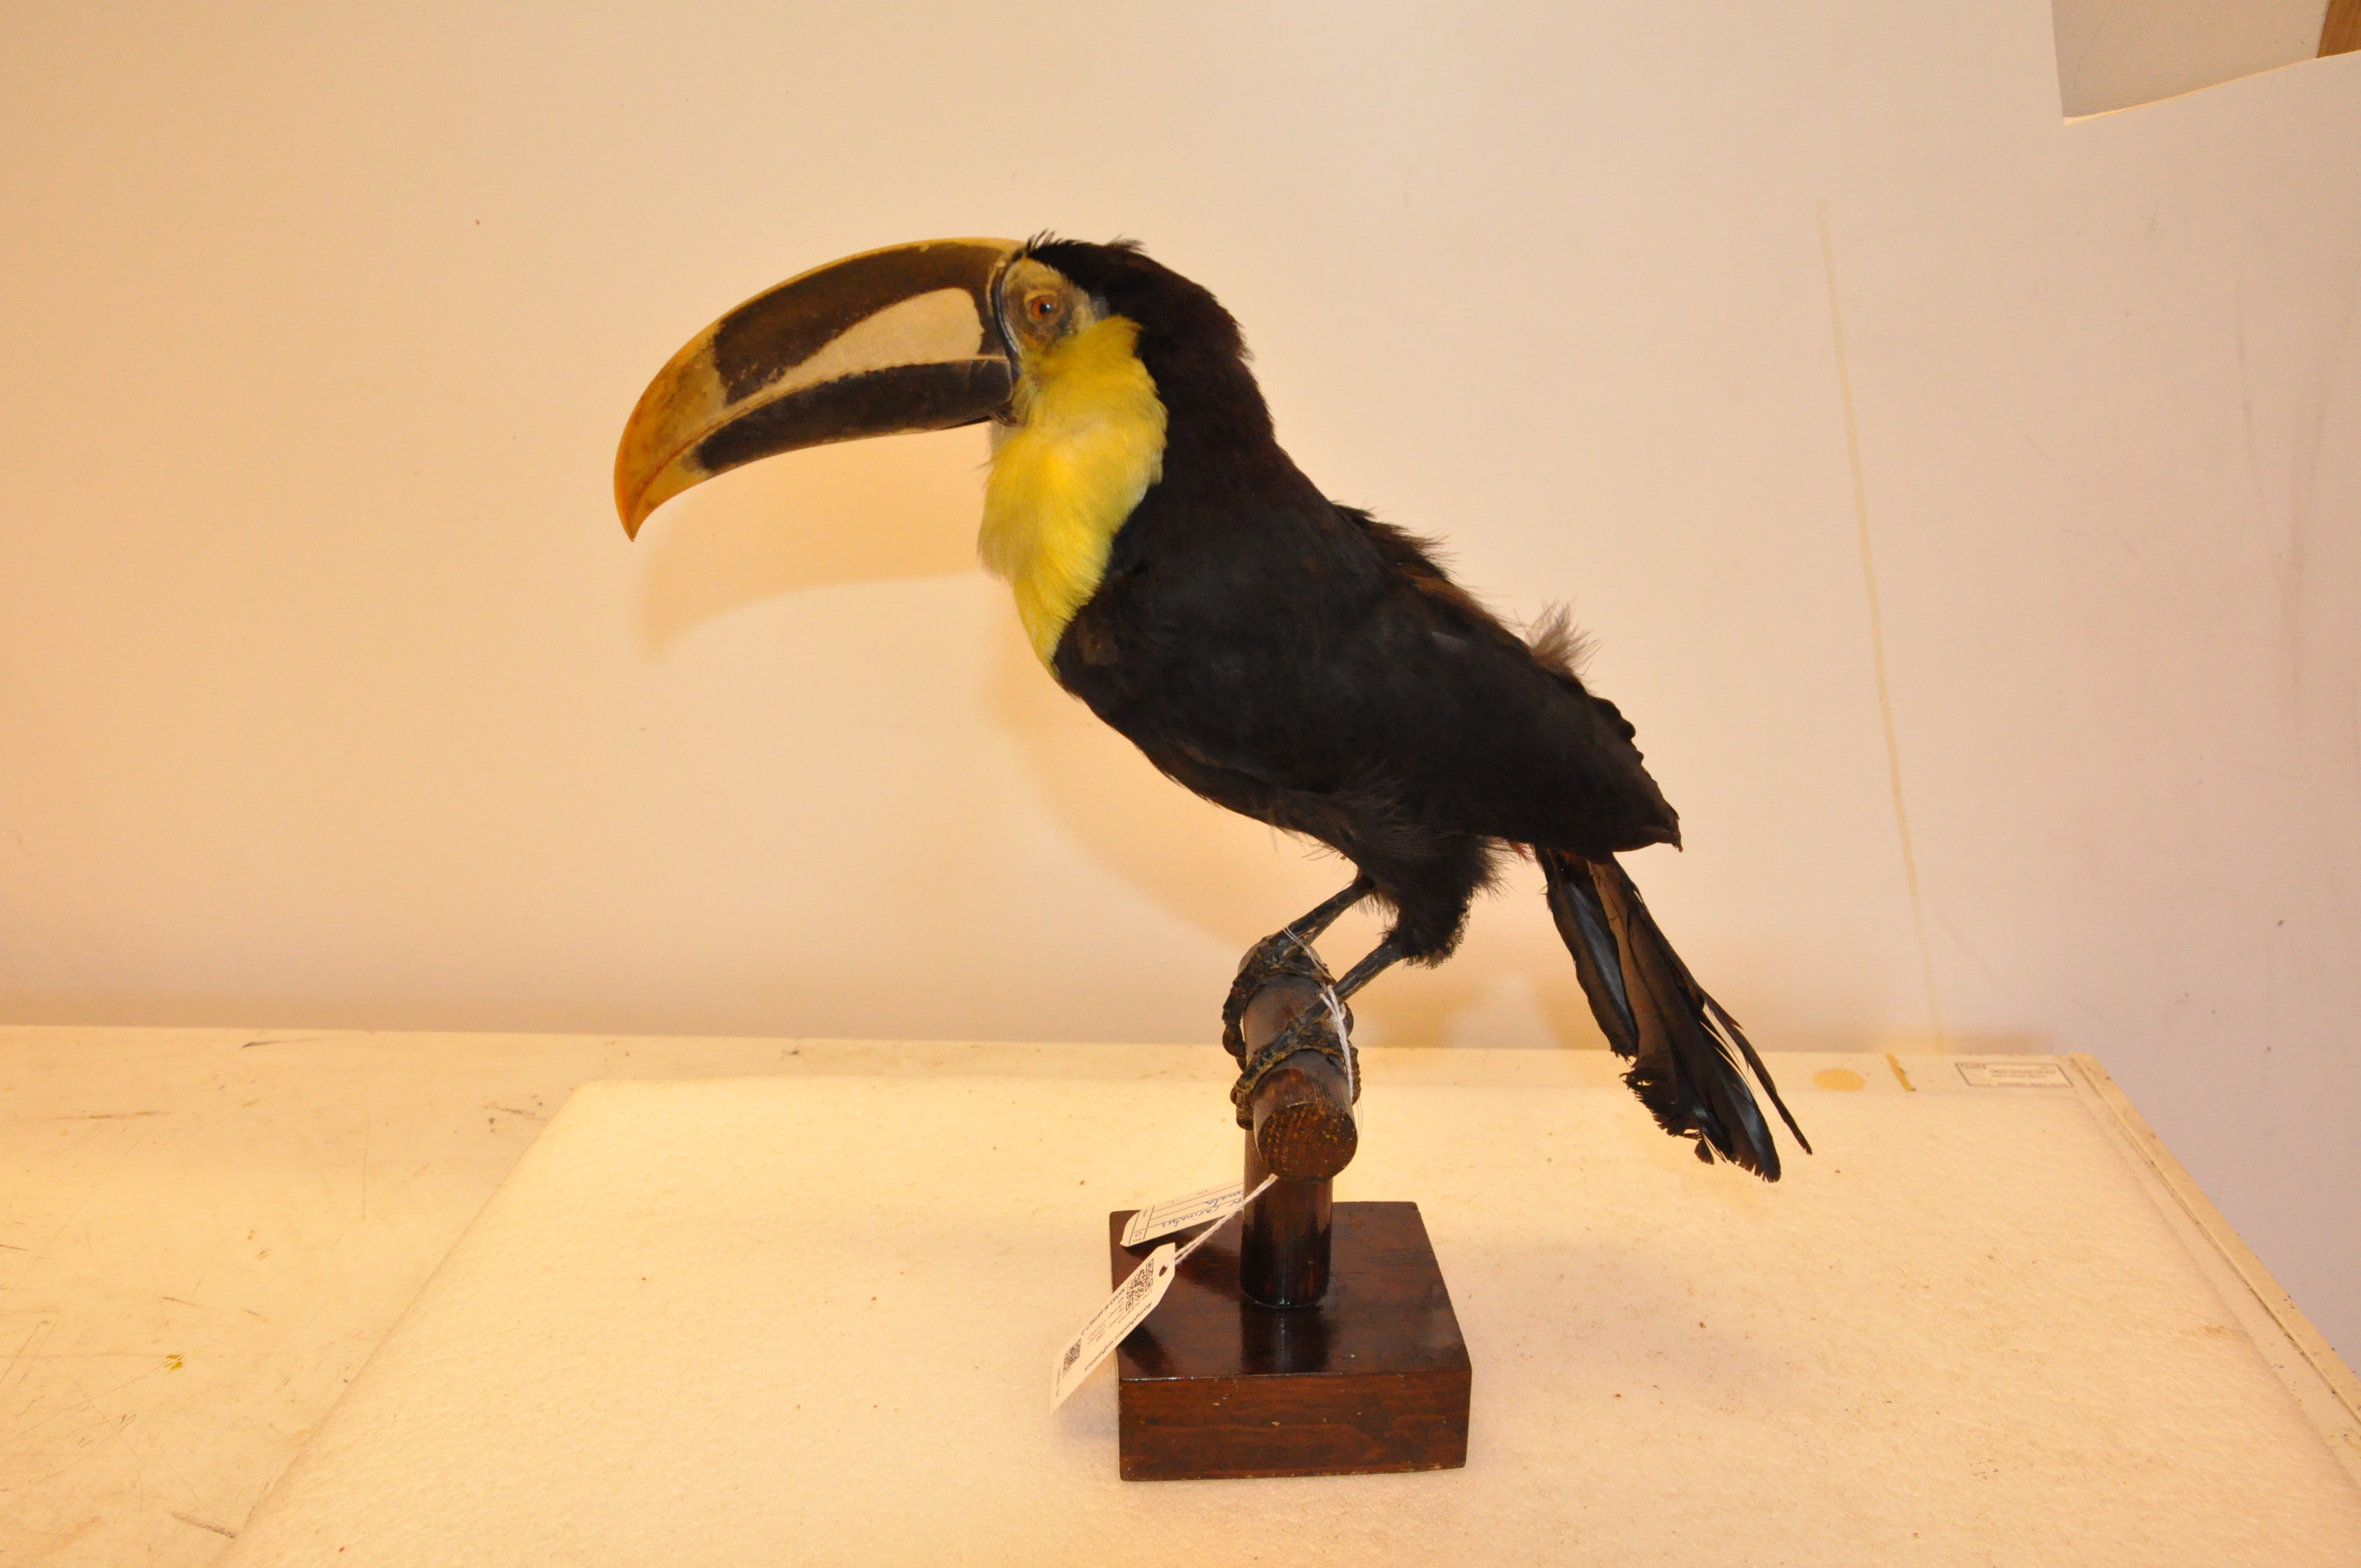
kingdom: Animalia
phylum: Chordata
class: Aves
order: Piciformes
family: Ramphastidae
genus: Ramphastos
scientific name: Ramphastos sulfuratus
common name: Keel-billed toucan
